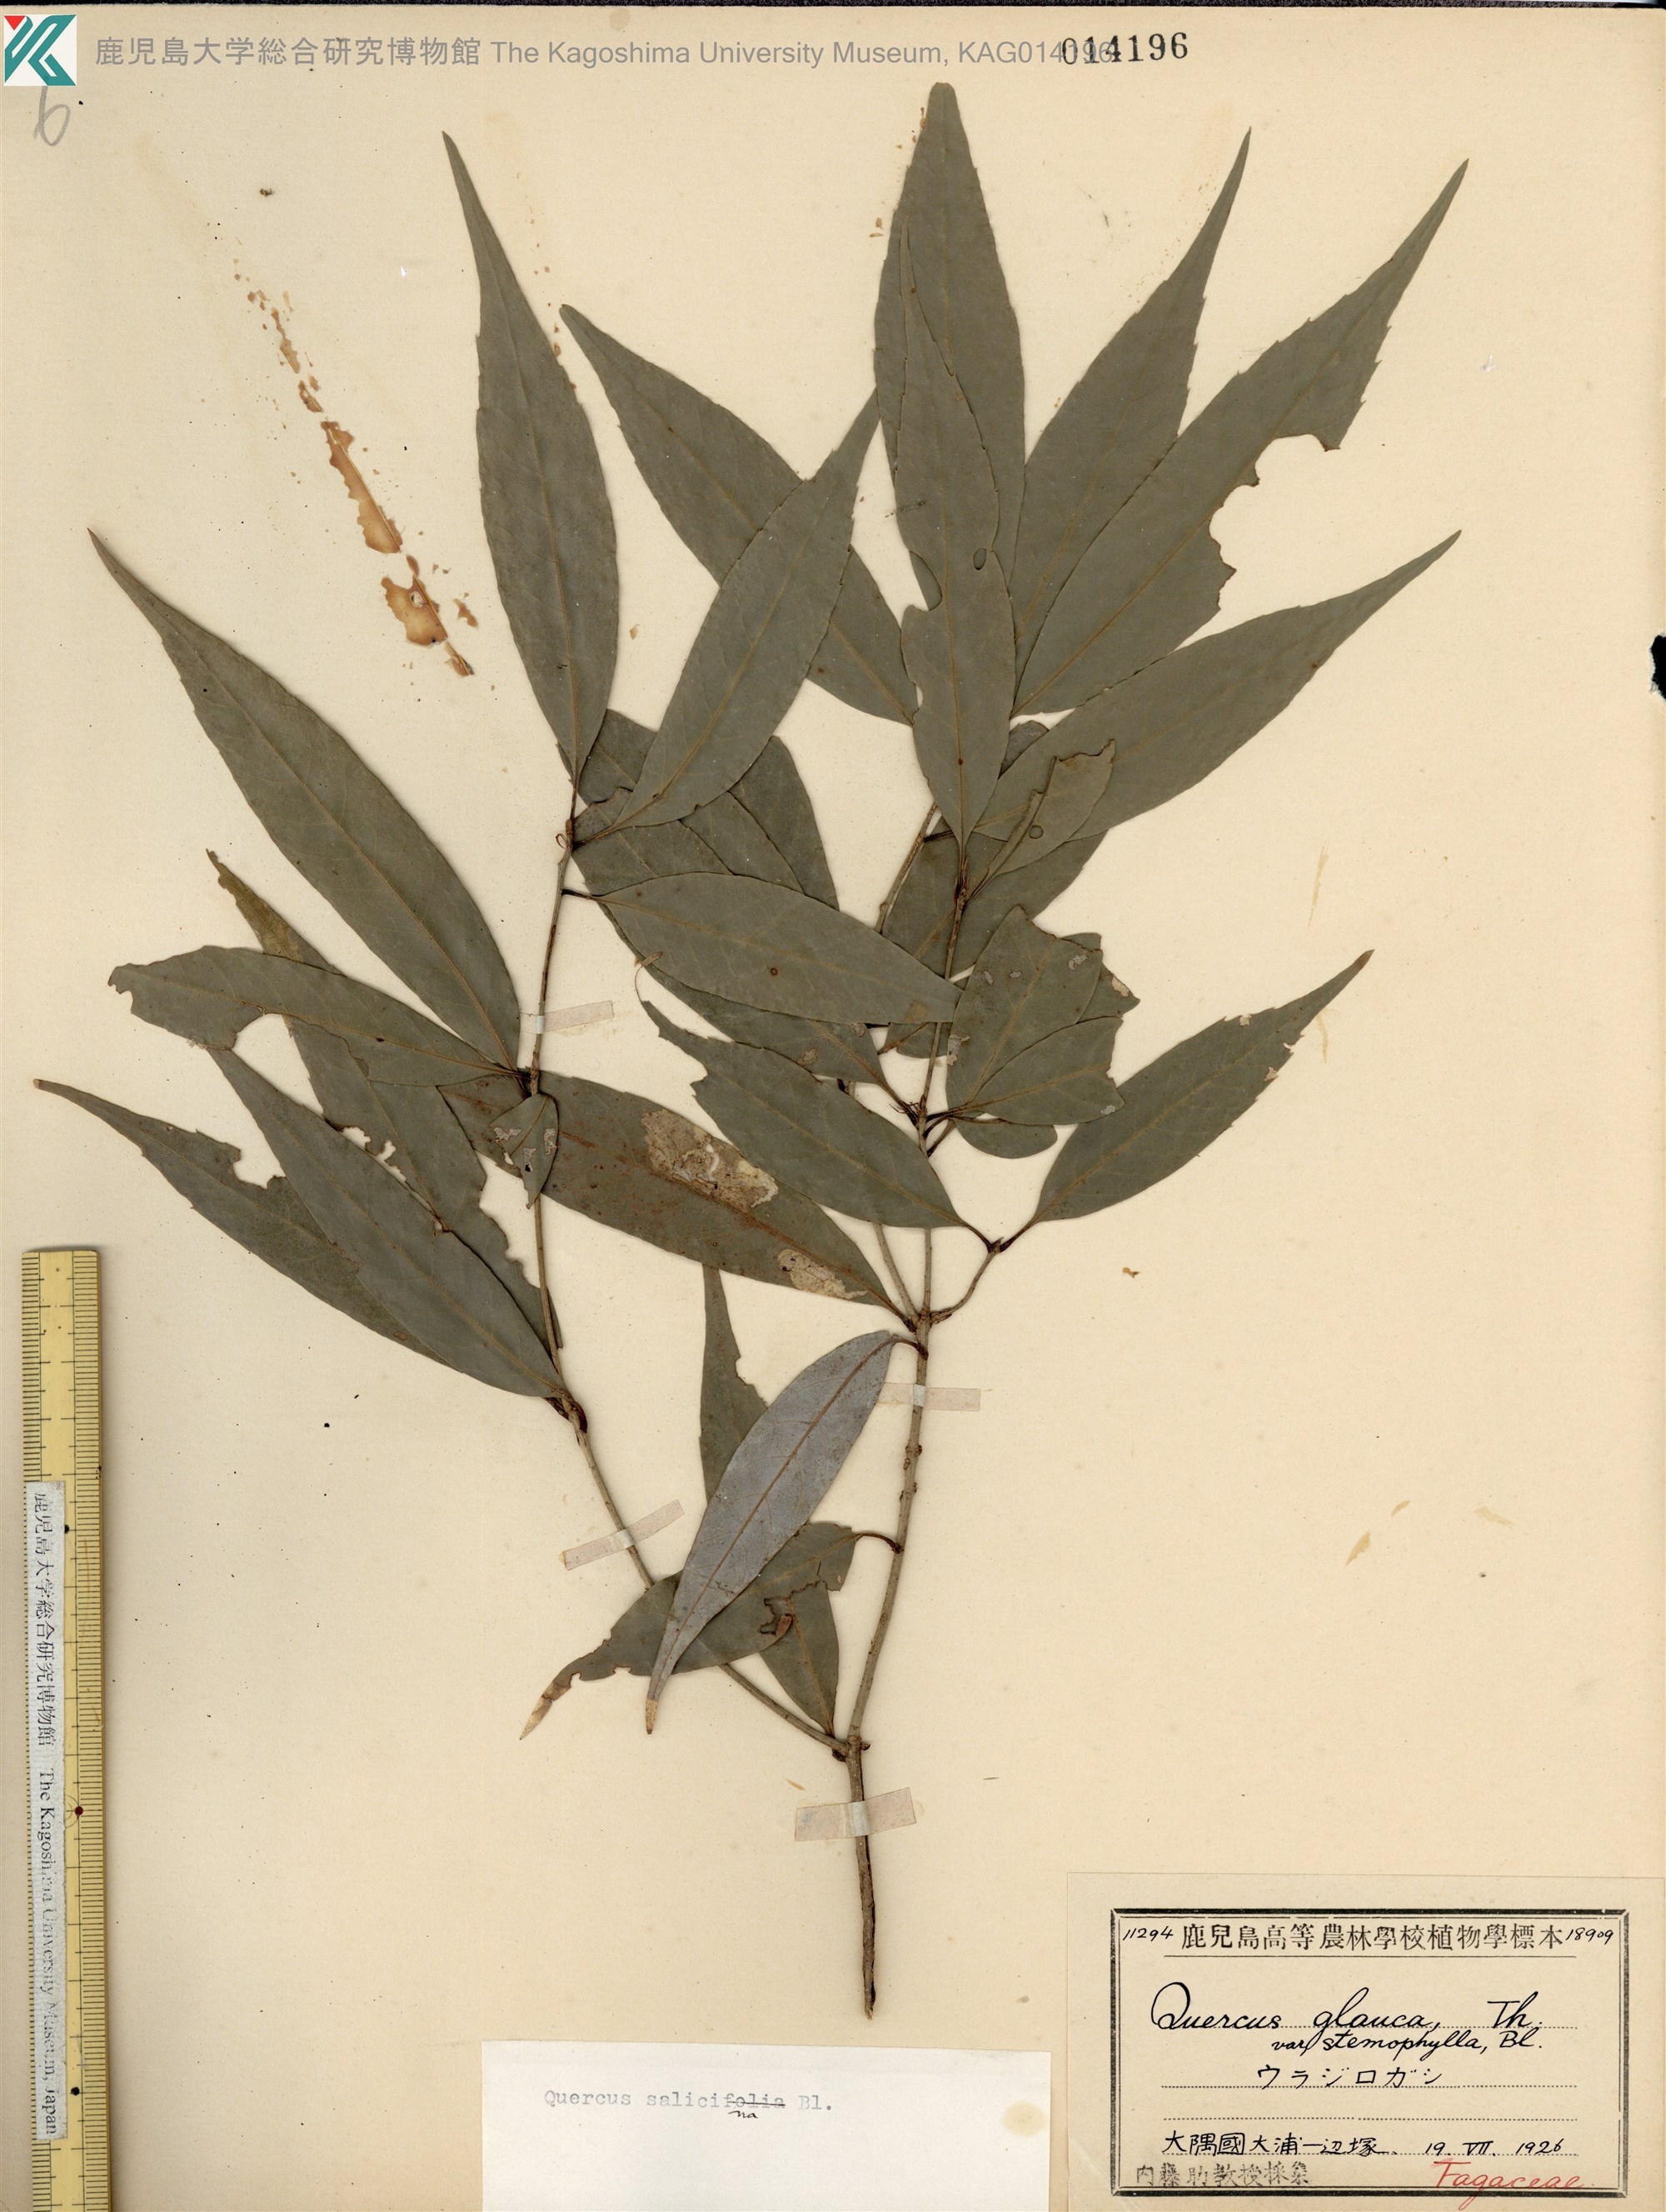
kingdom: Plantae
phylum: Tracheophyta
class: Magnoliopsida
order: Fagales
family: Fagaceae
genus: Quercus
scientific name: Quercus salicina
